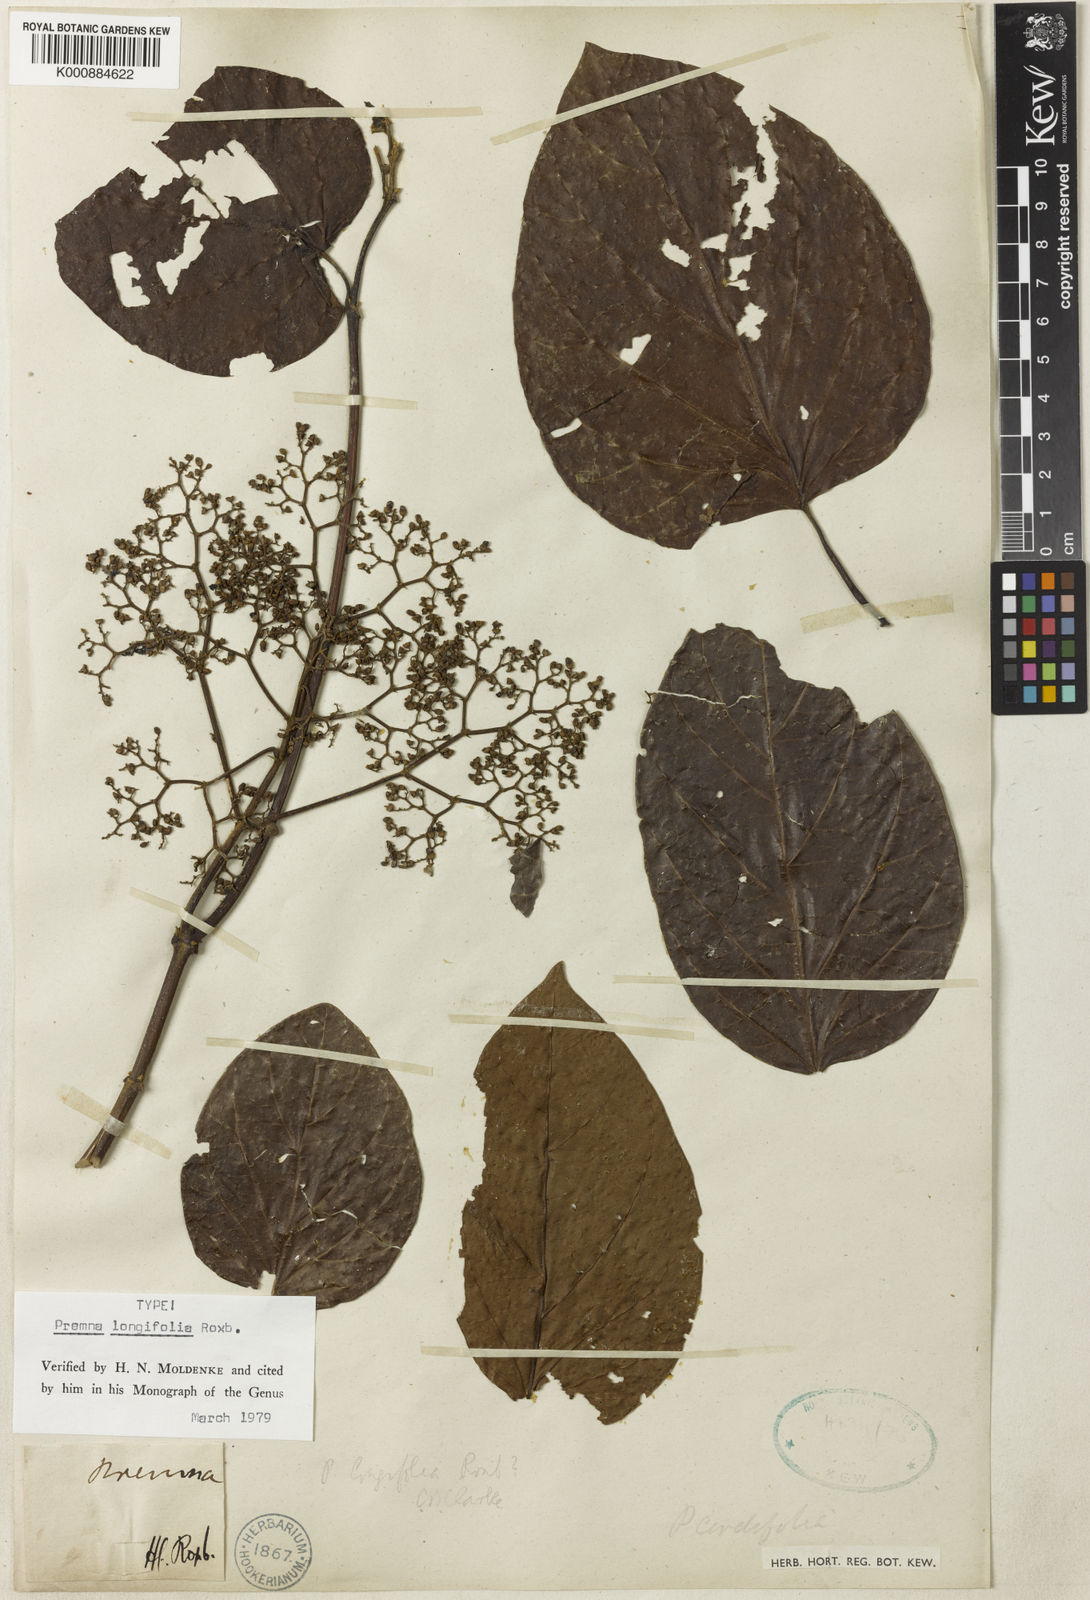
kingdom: Plantae
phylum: Tracheophyta
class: Magnoliopsida
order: Lamiales
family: Lamiaceae
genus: Premna
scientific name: Premna khasiana
